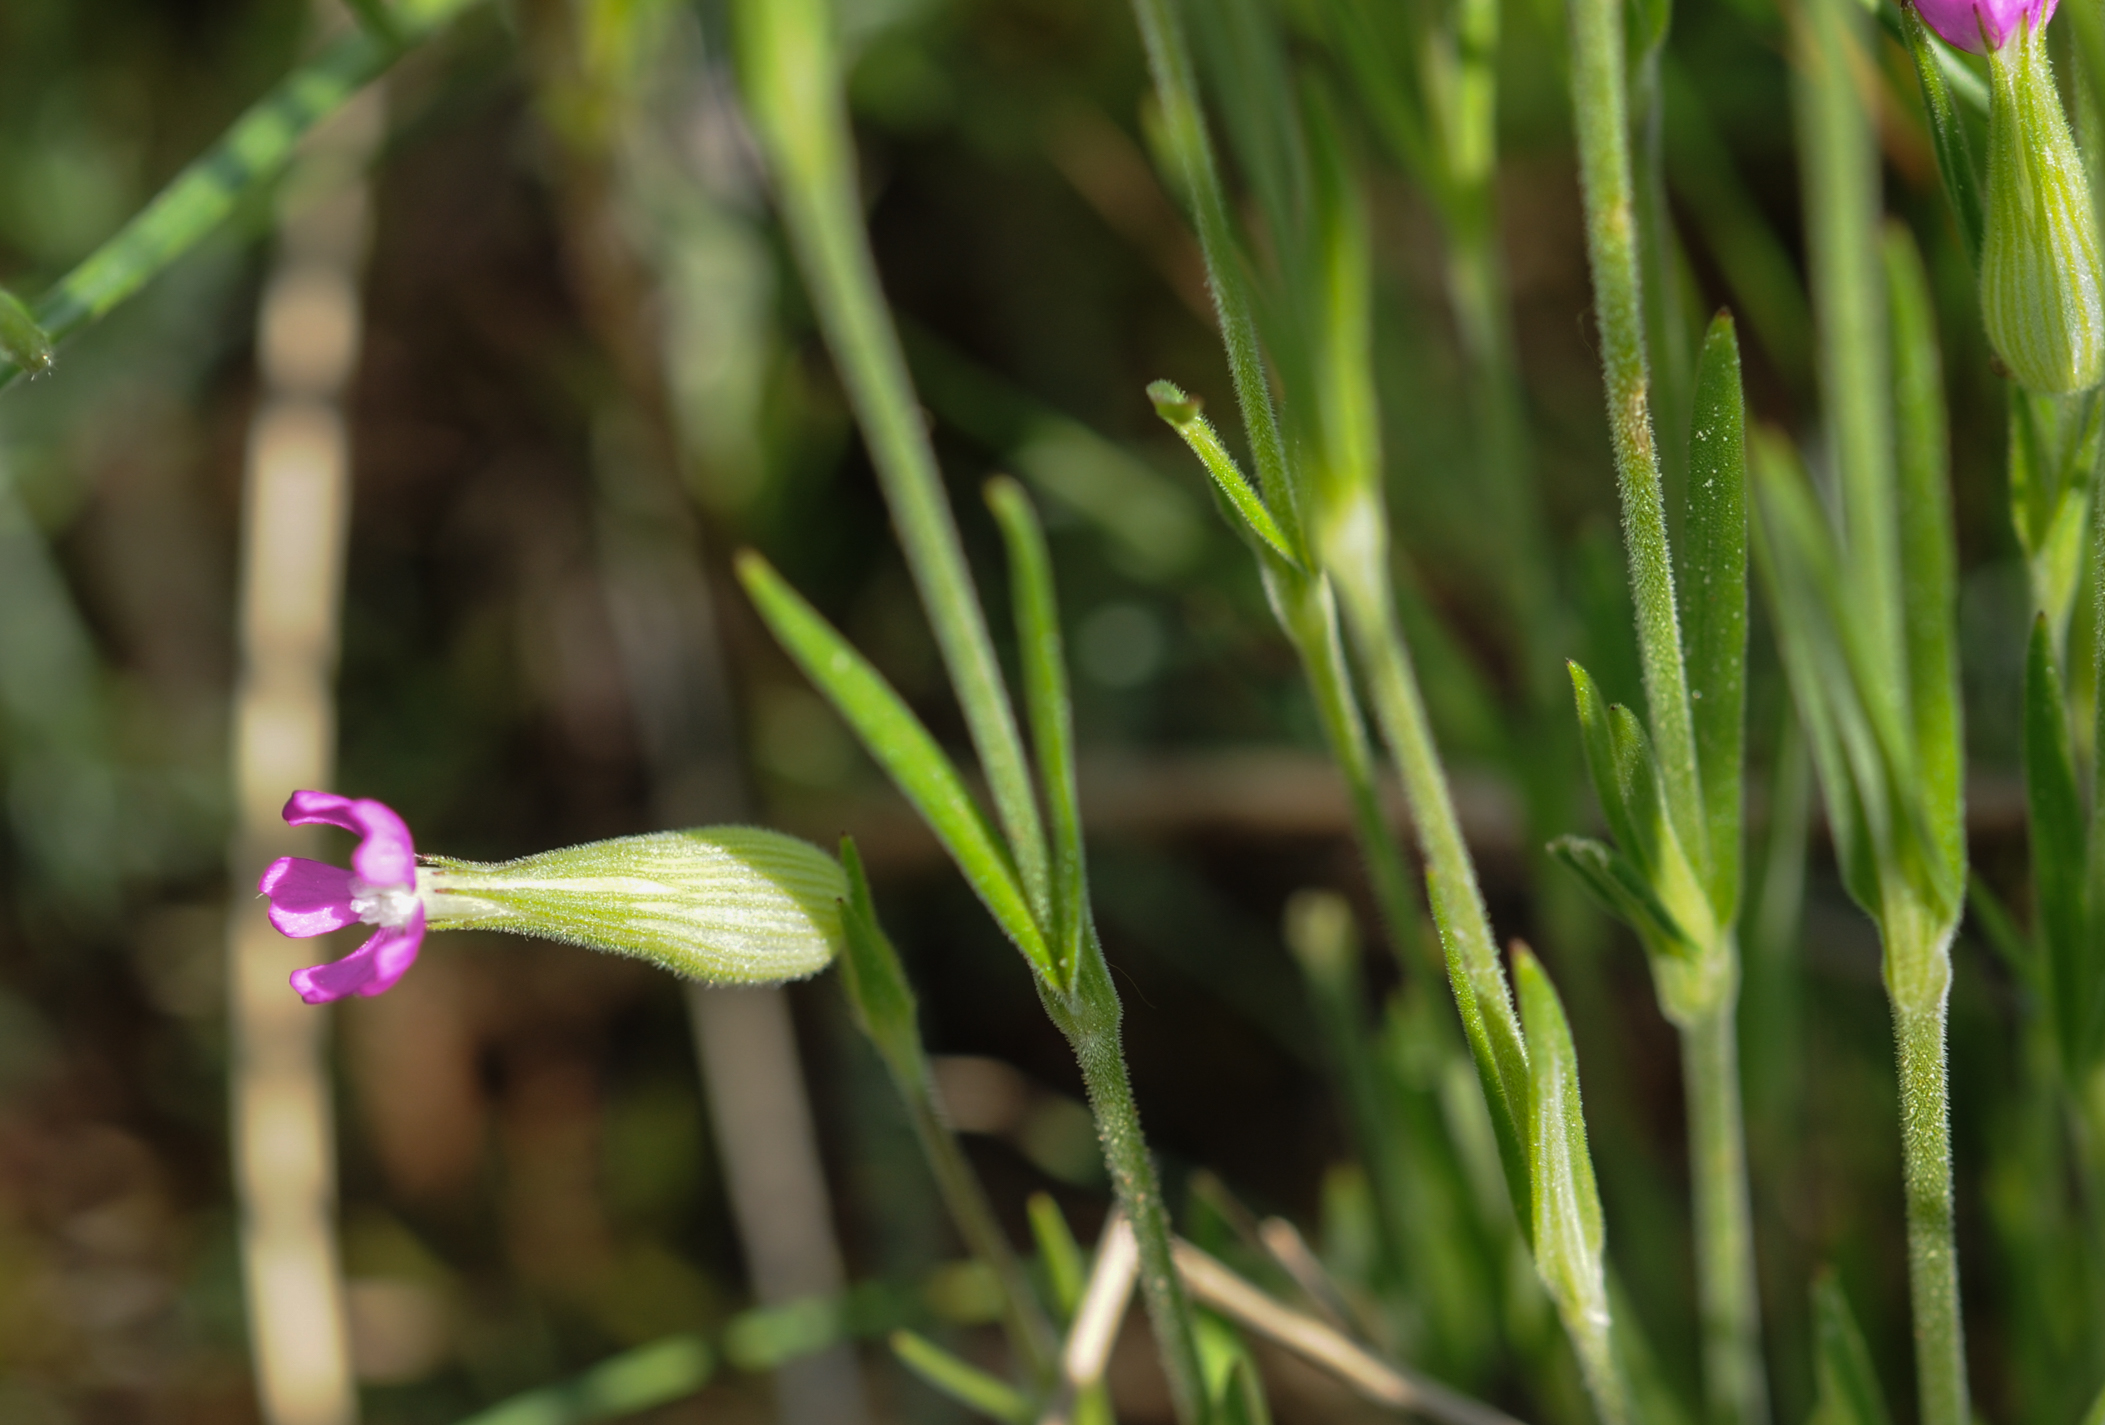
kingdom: Plantae
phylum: Tracheophyta
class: Magnoliopsida
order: Caryophyllales
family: Caryophyllaceae
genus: Silene
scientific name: Silene conica
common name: Sand catchfly
